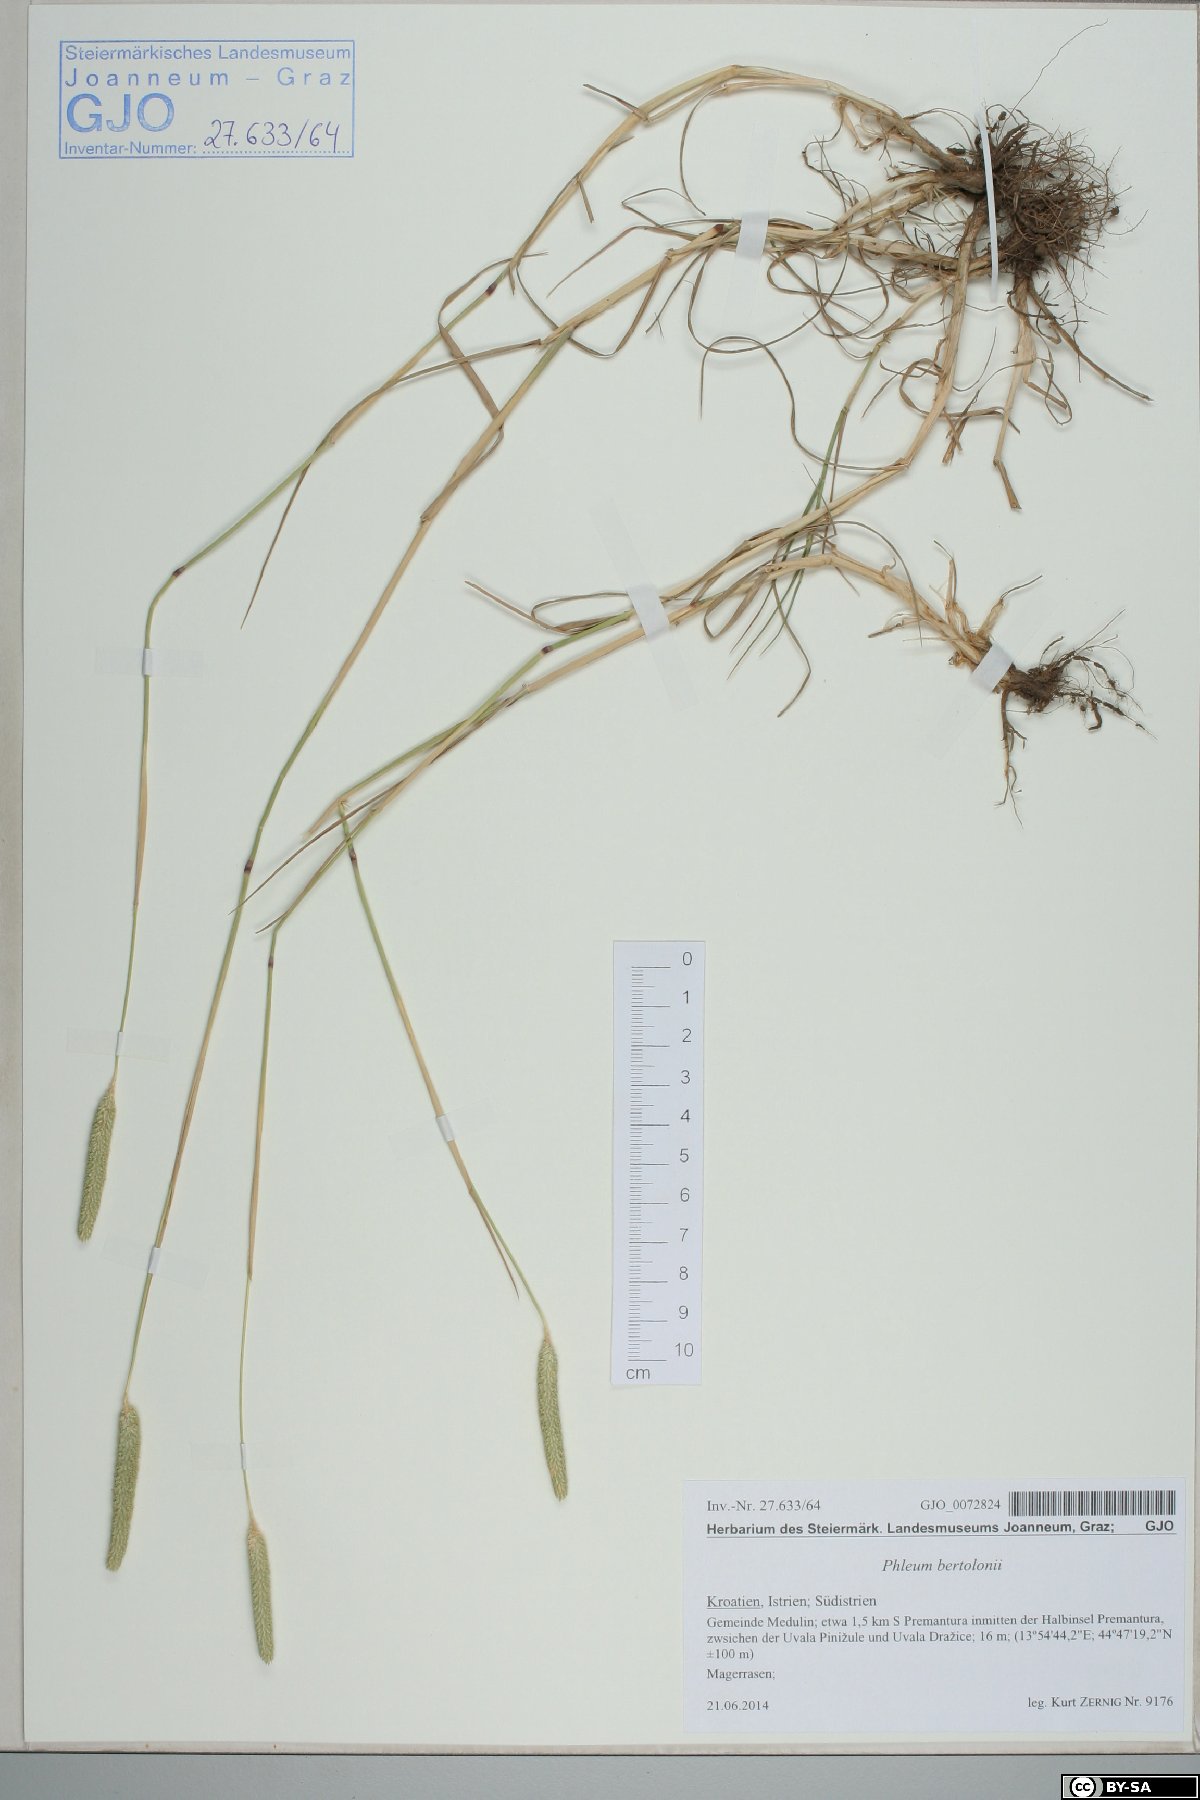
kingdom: Plantae
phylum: Tracheophyta
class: Liliopsida
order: Poales
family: Poaceae
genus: Phleum
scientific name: Phleum bertolonii
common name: Smaller cat's-tail
